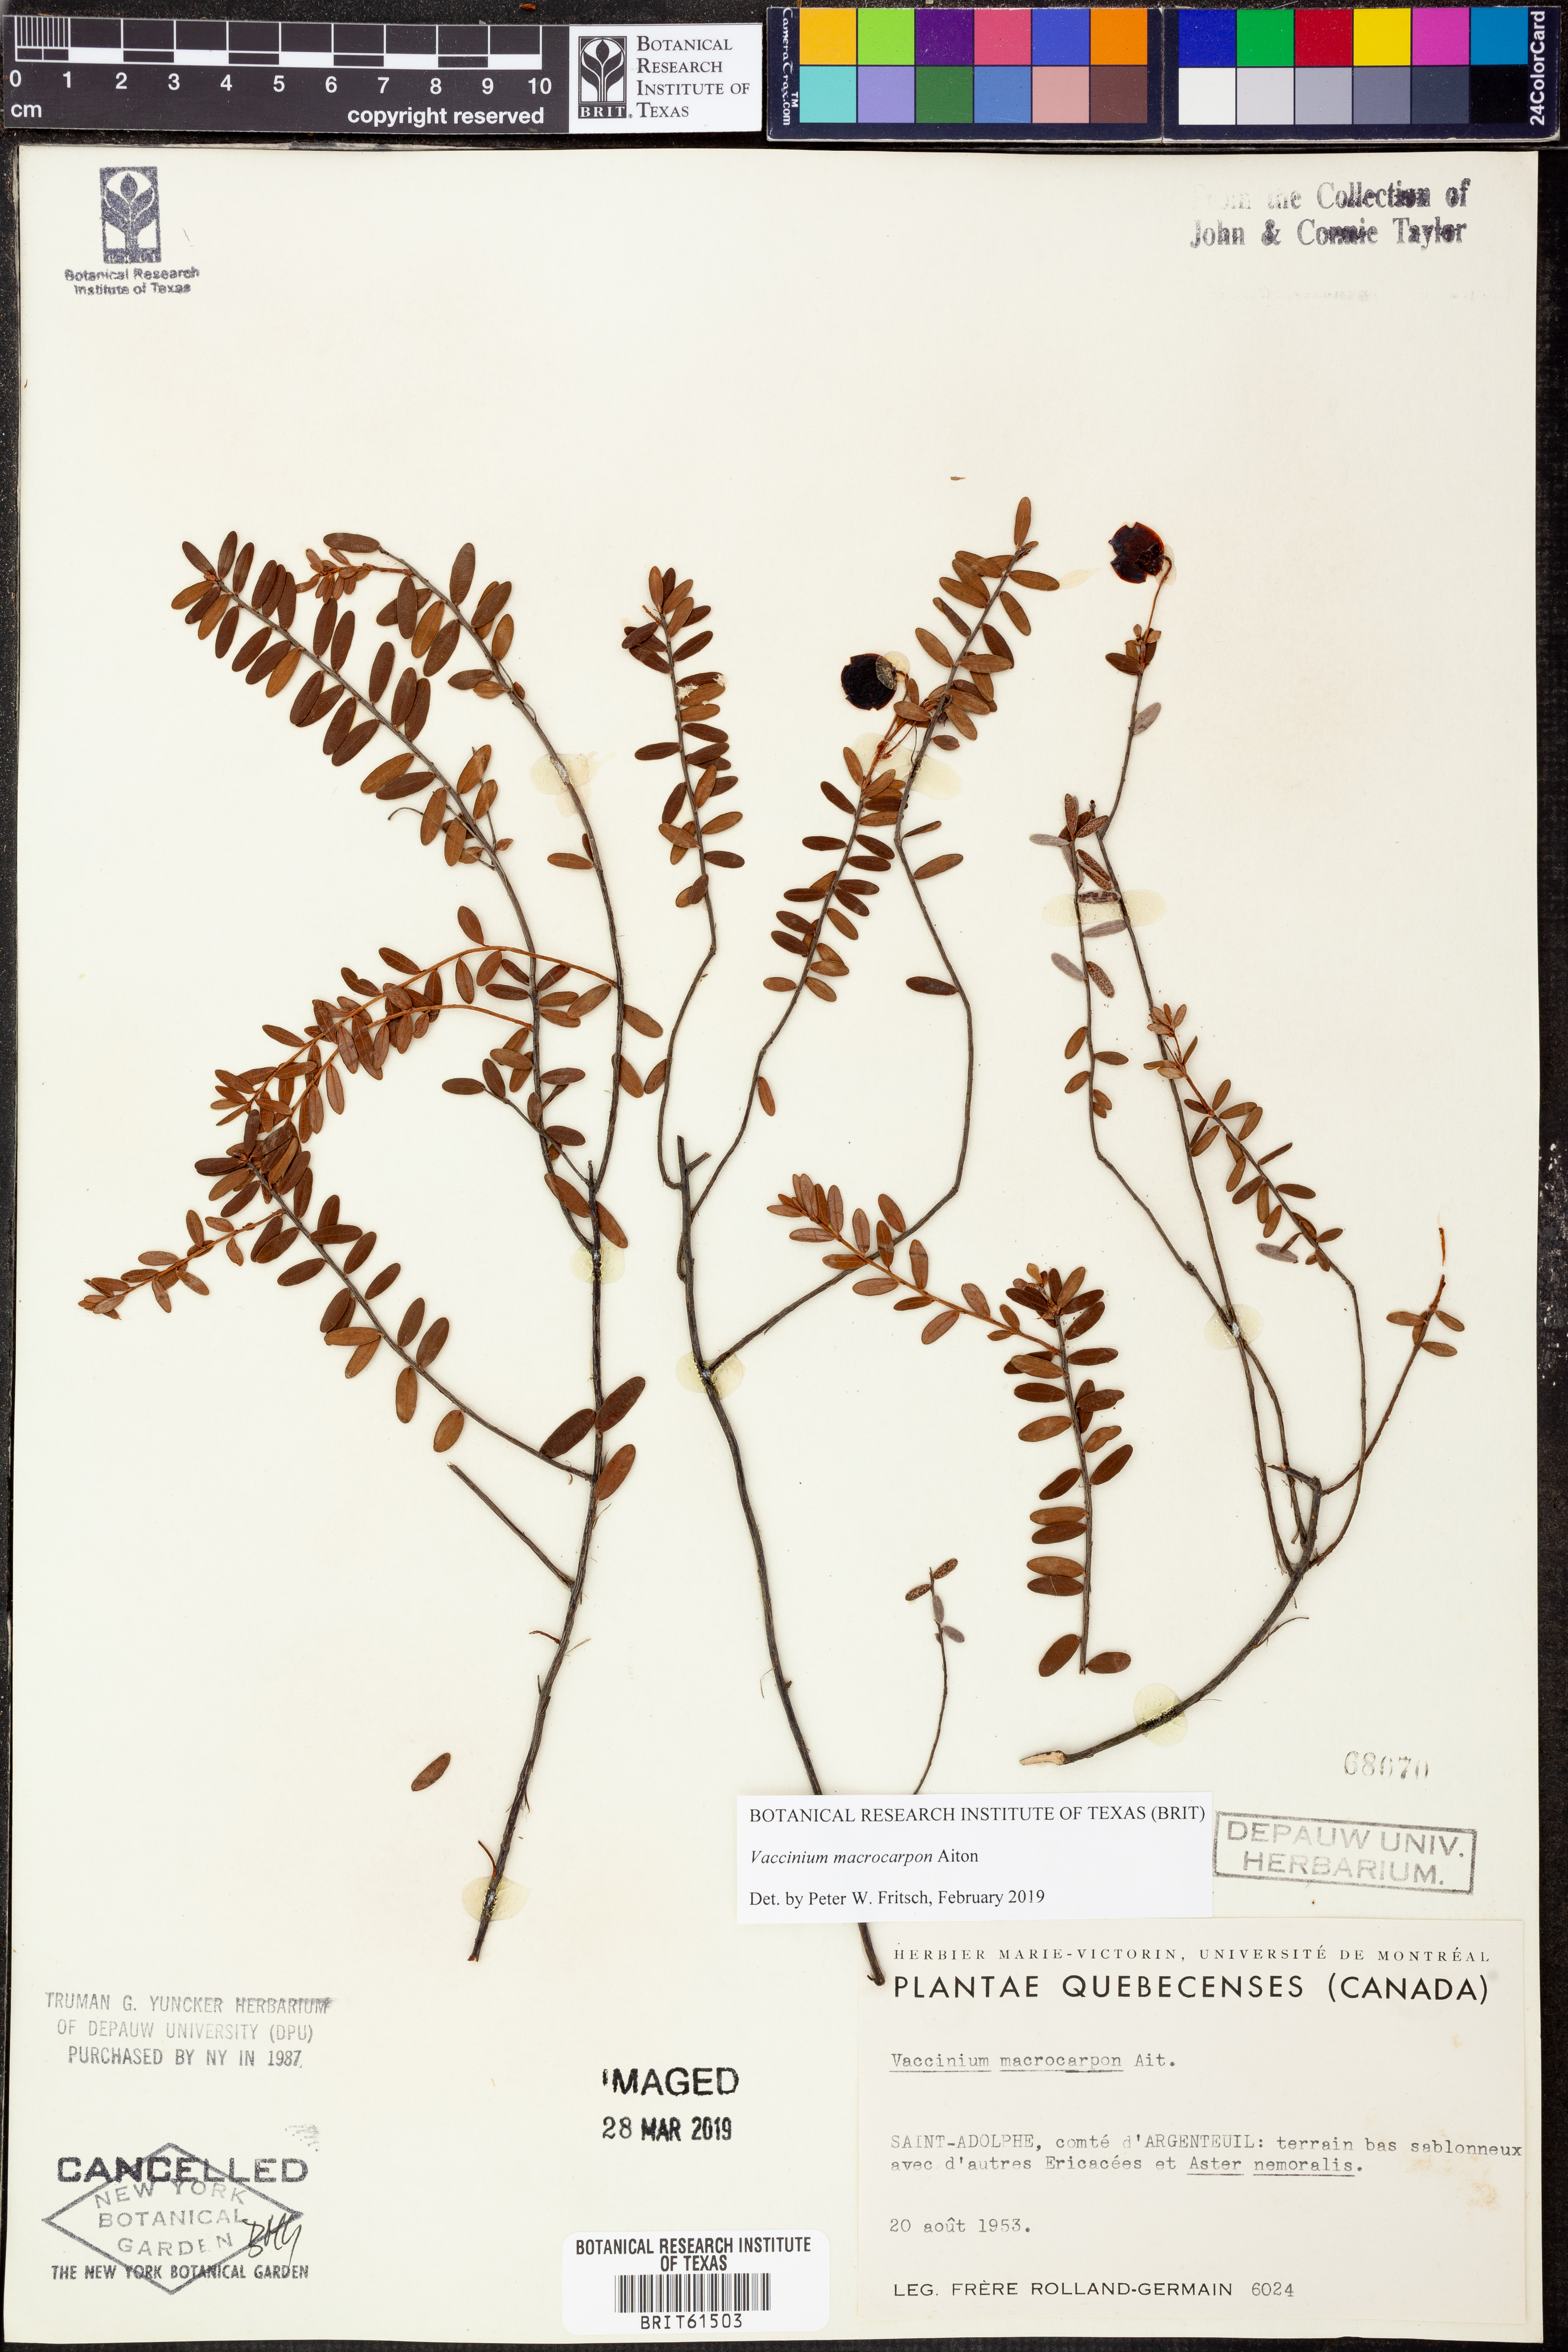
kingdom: Plantae
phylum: Tracheophyta
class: Magnoliopsida
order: Ericales
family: Ericaceae
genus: Vaccinium
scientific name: Vaccinium macrocarpon
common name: American cranberry
